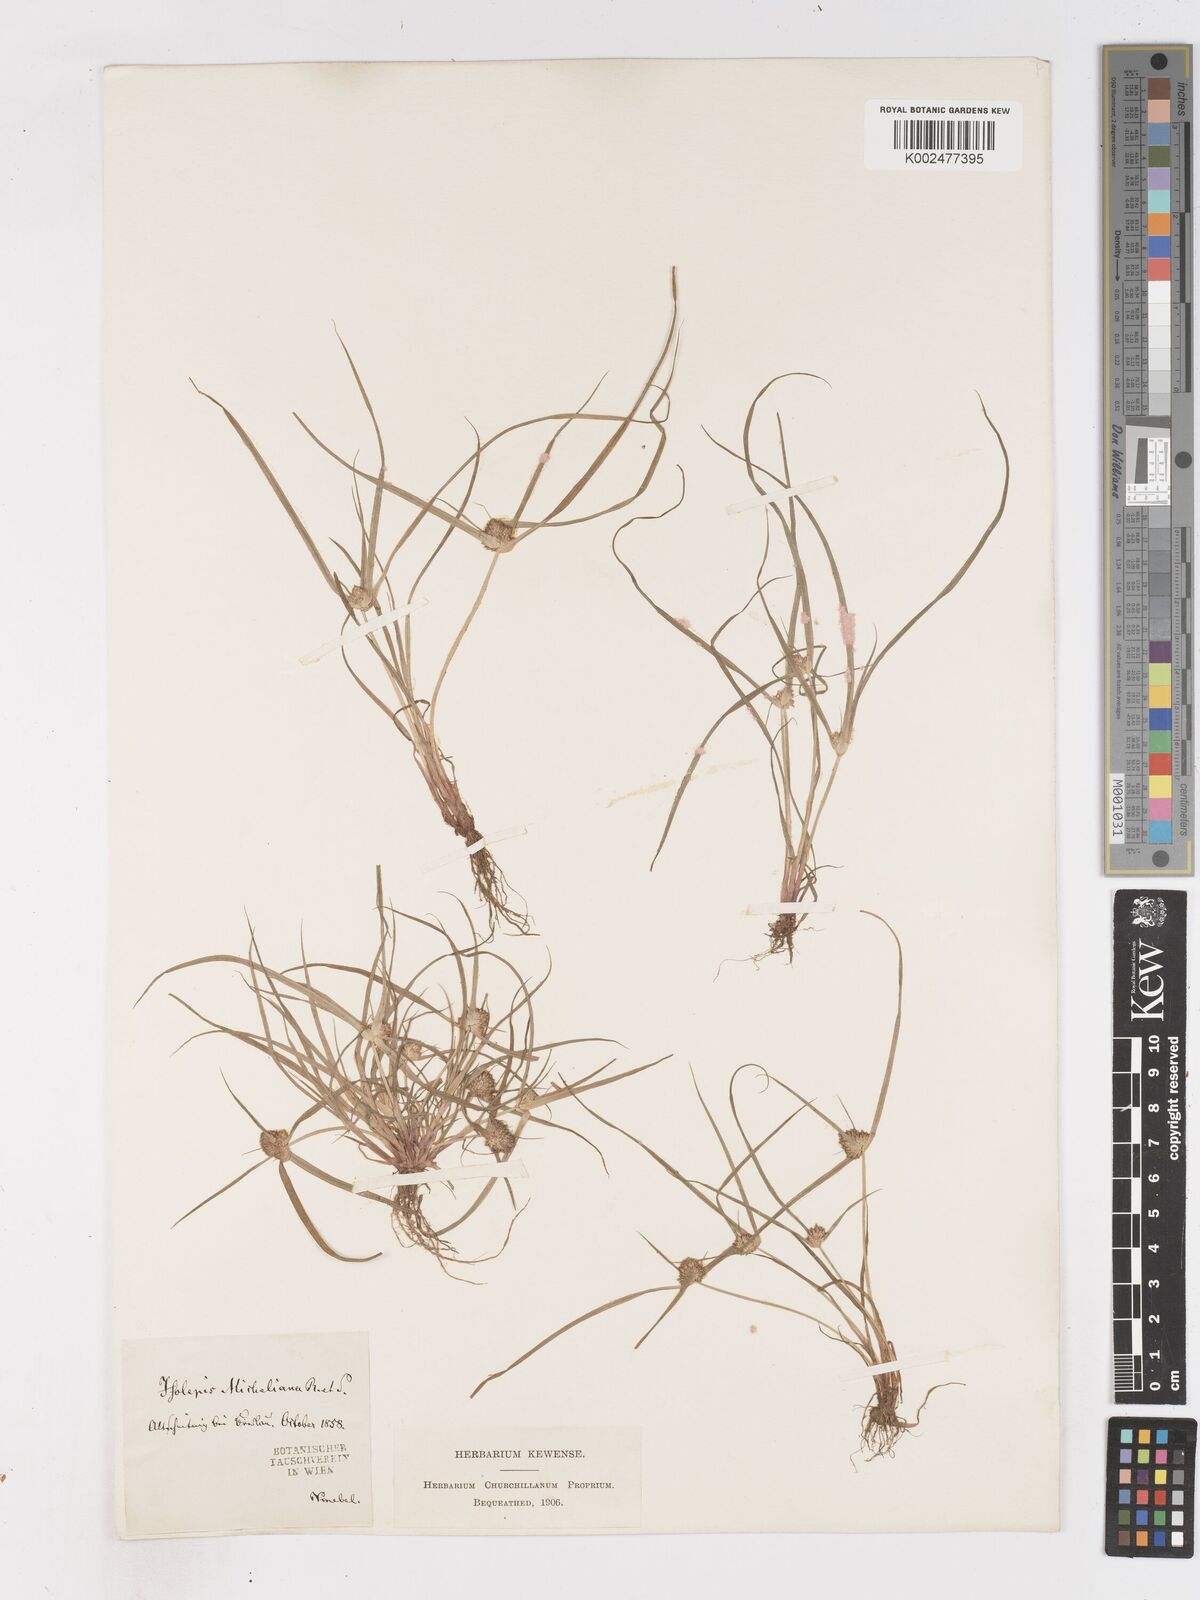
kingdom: Plantae
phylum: Tracheophyta
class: Liliopsida
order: Poales
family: Cyperaceae
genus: Cyperus
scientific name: Cyperus michelianus
